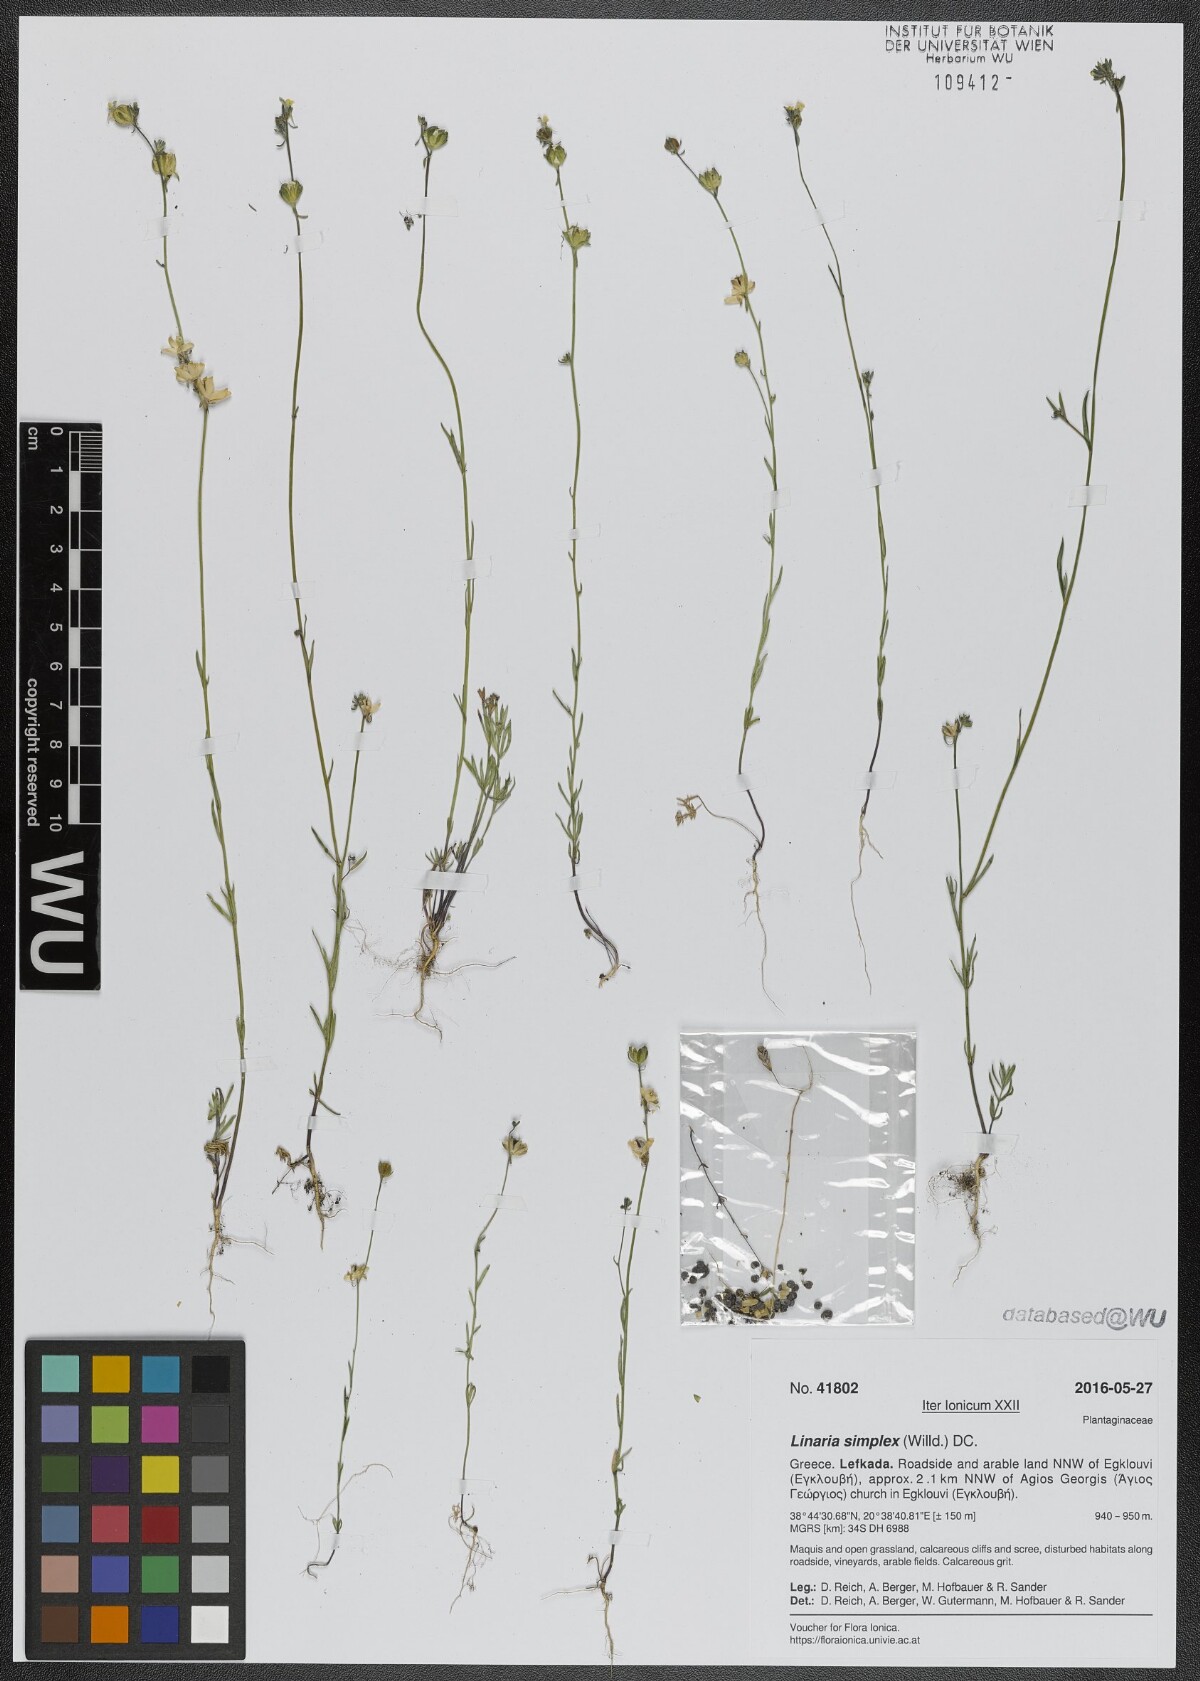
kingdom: Plantae
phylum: Tracheophyta
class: Magnoliopsida
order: Lamiales
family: Plantaginaceae
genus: Linaria
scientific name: Linaria simplex
